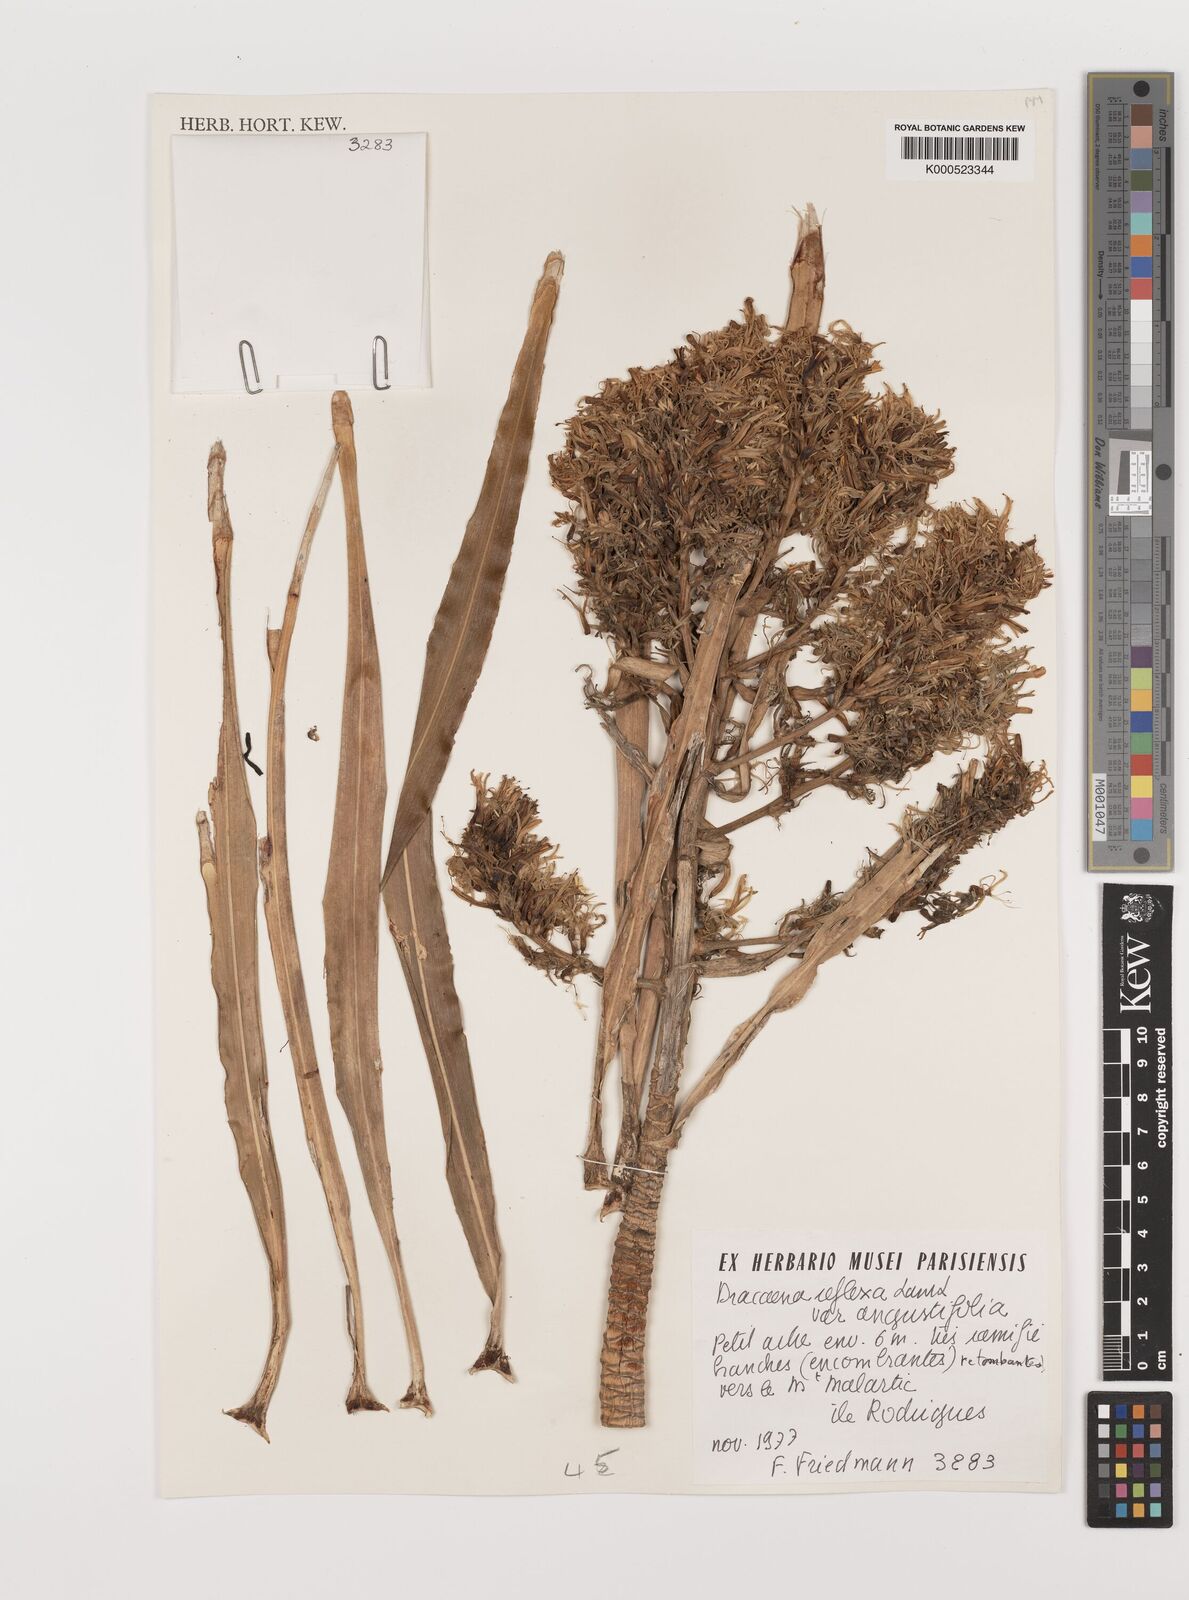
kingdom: Plantae
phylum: Tracheophyta
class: Liliopsida
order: Asparagales
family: Asparagaceae
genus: Dracaena
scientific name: Dracaena reflexa
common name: Song-of-india
